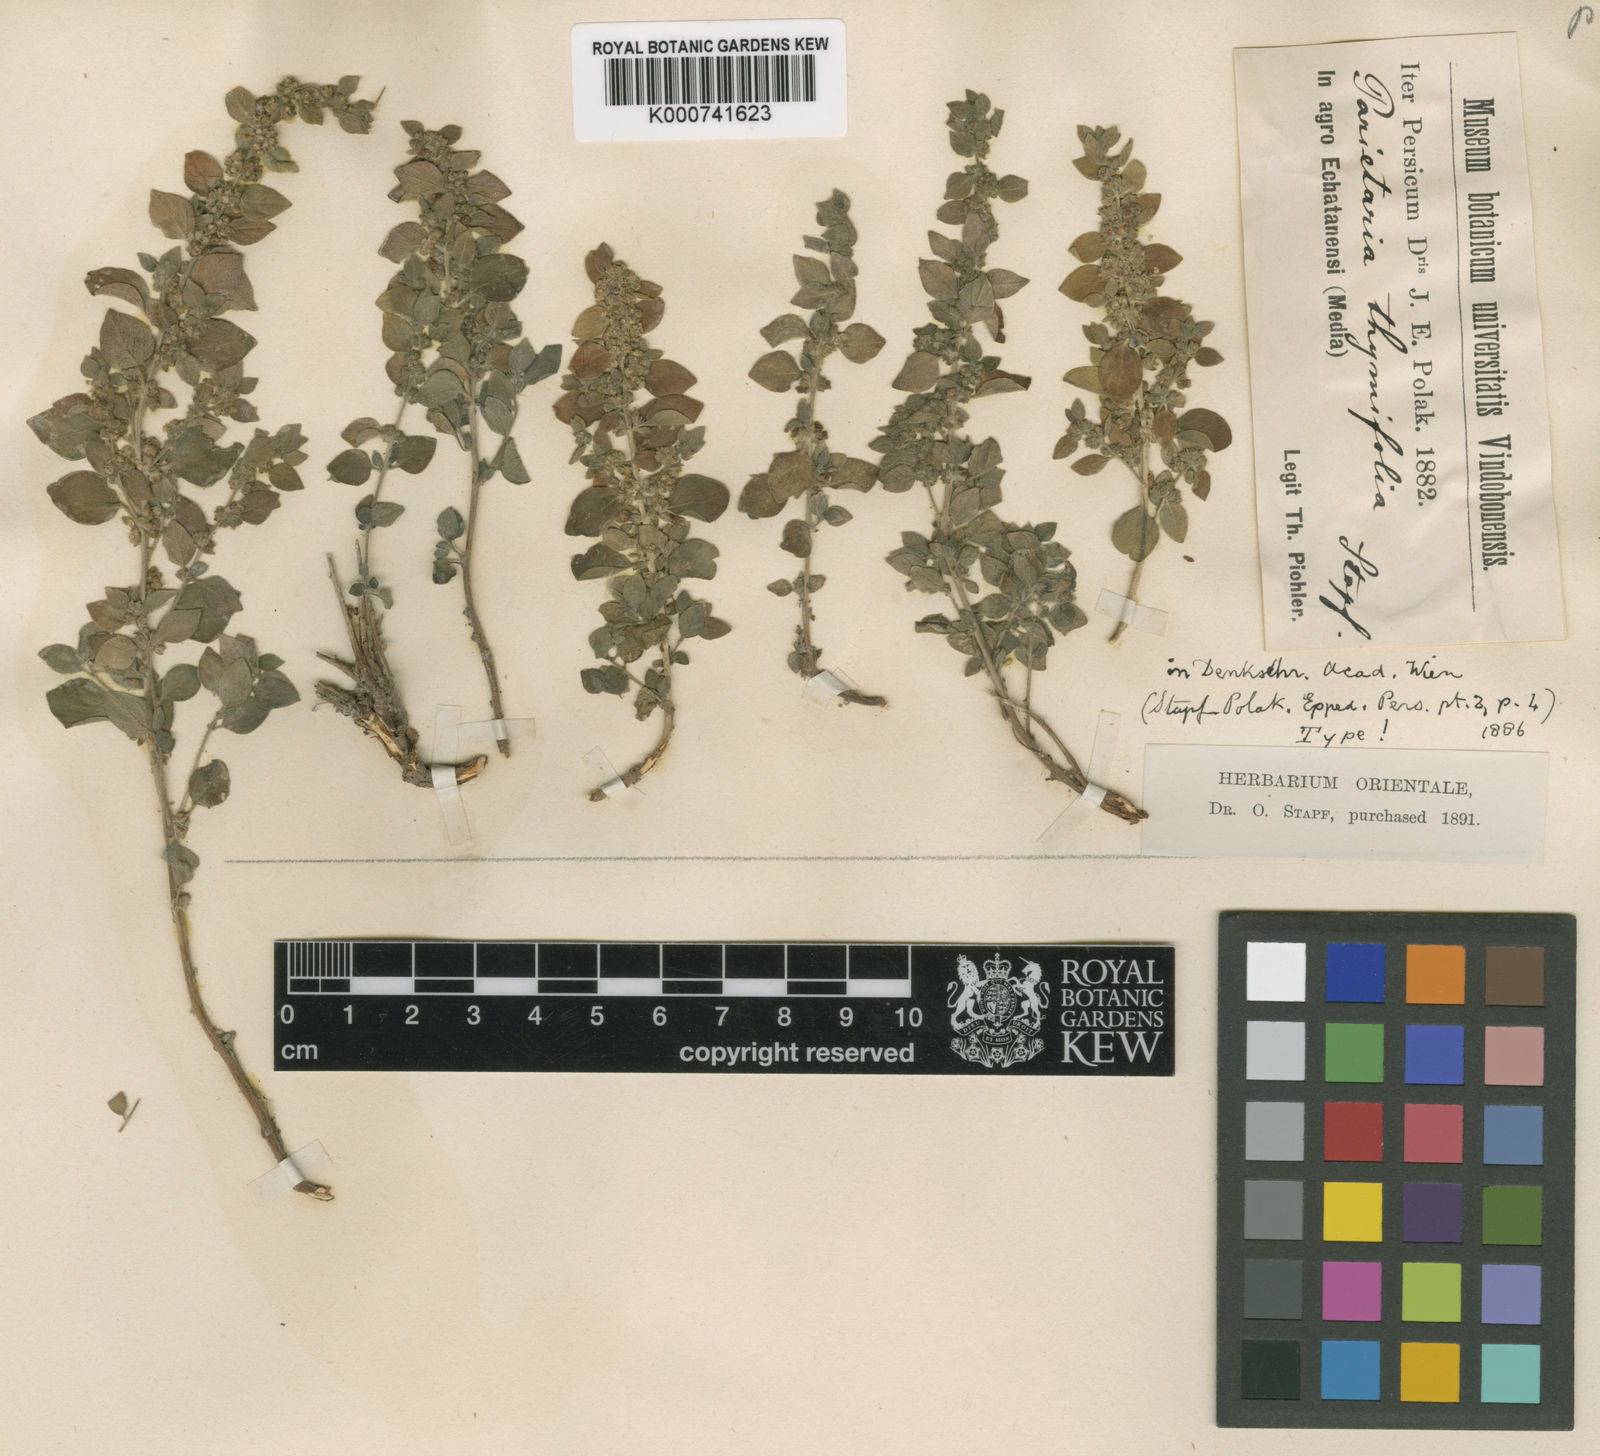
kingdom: Plantae
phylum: Tracheophyta
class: Magnoliopsida
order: Rosales
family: Urticaceae
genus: Parietaria
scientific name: Parietaria judaica
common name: Pellitory-of-the-wall
